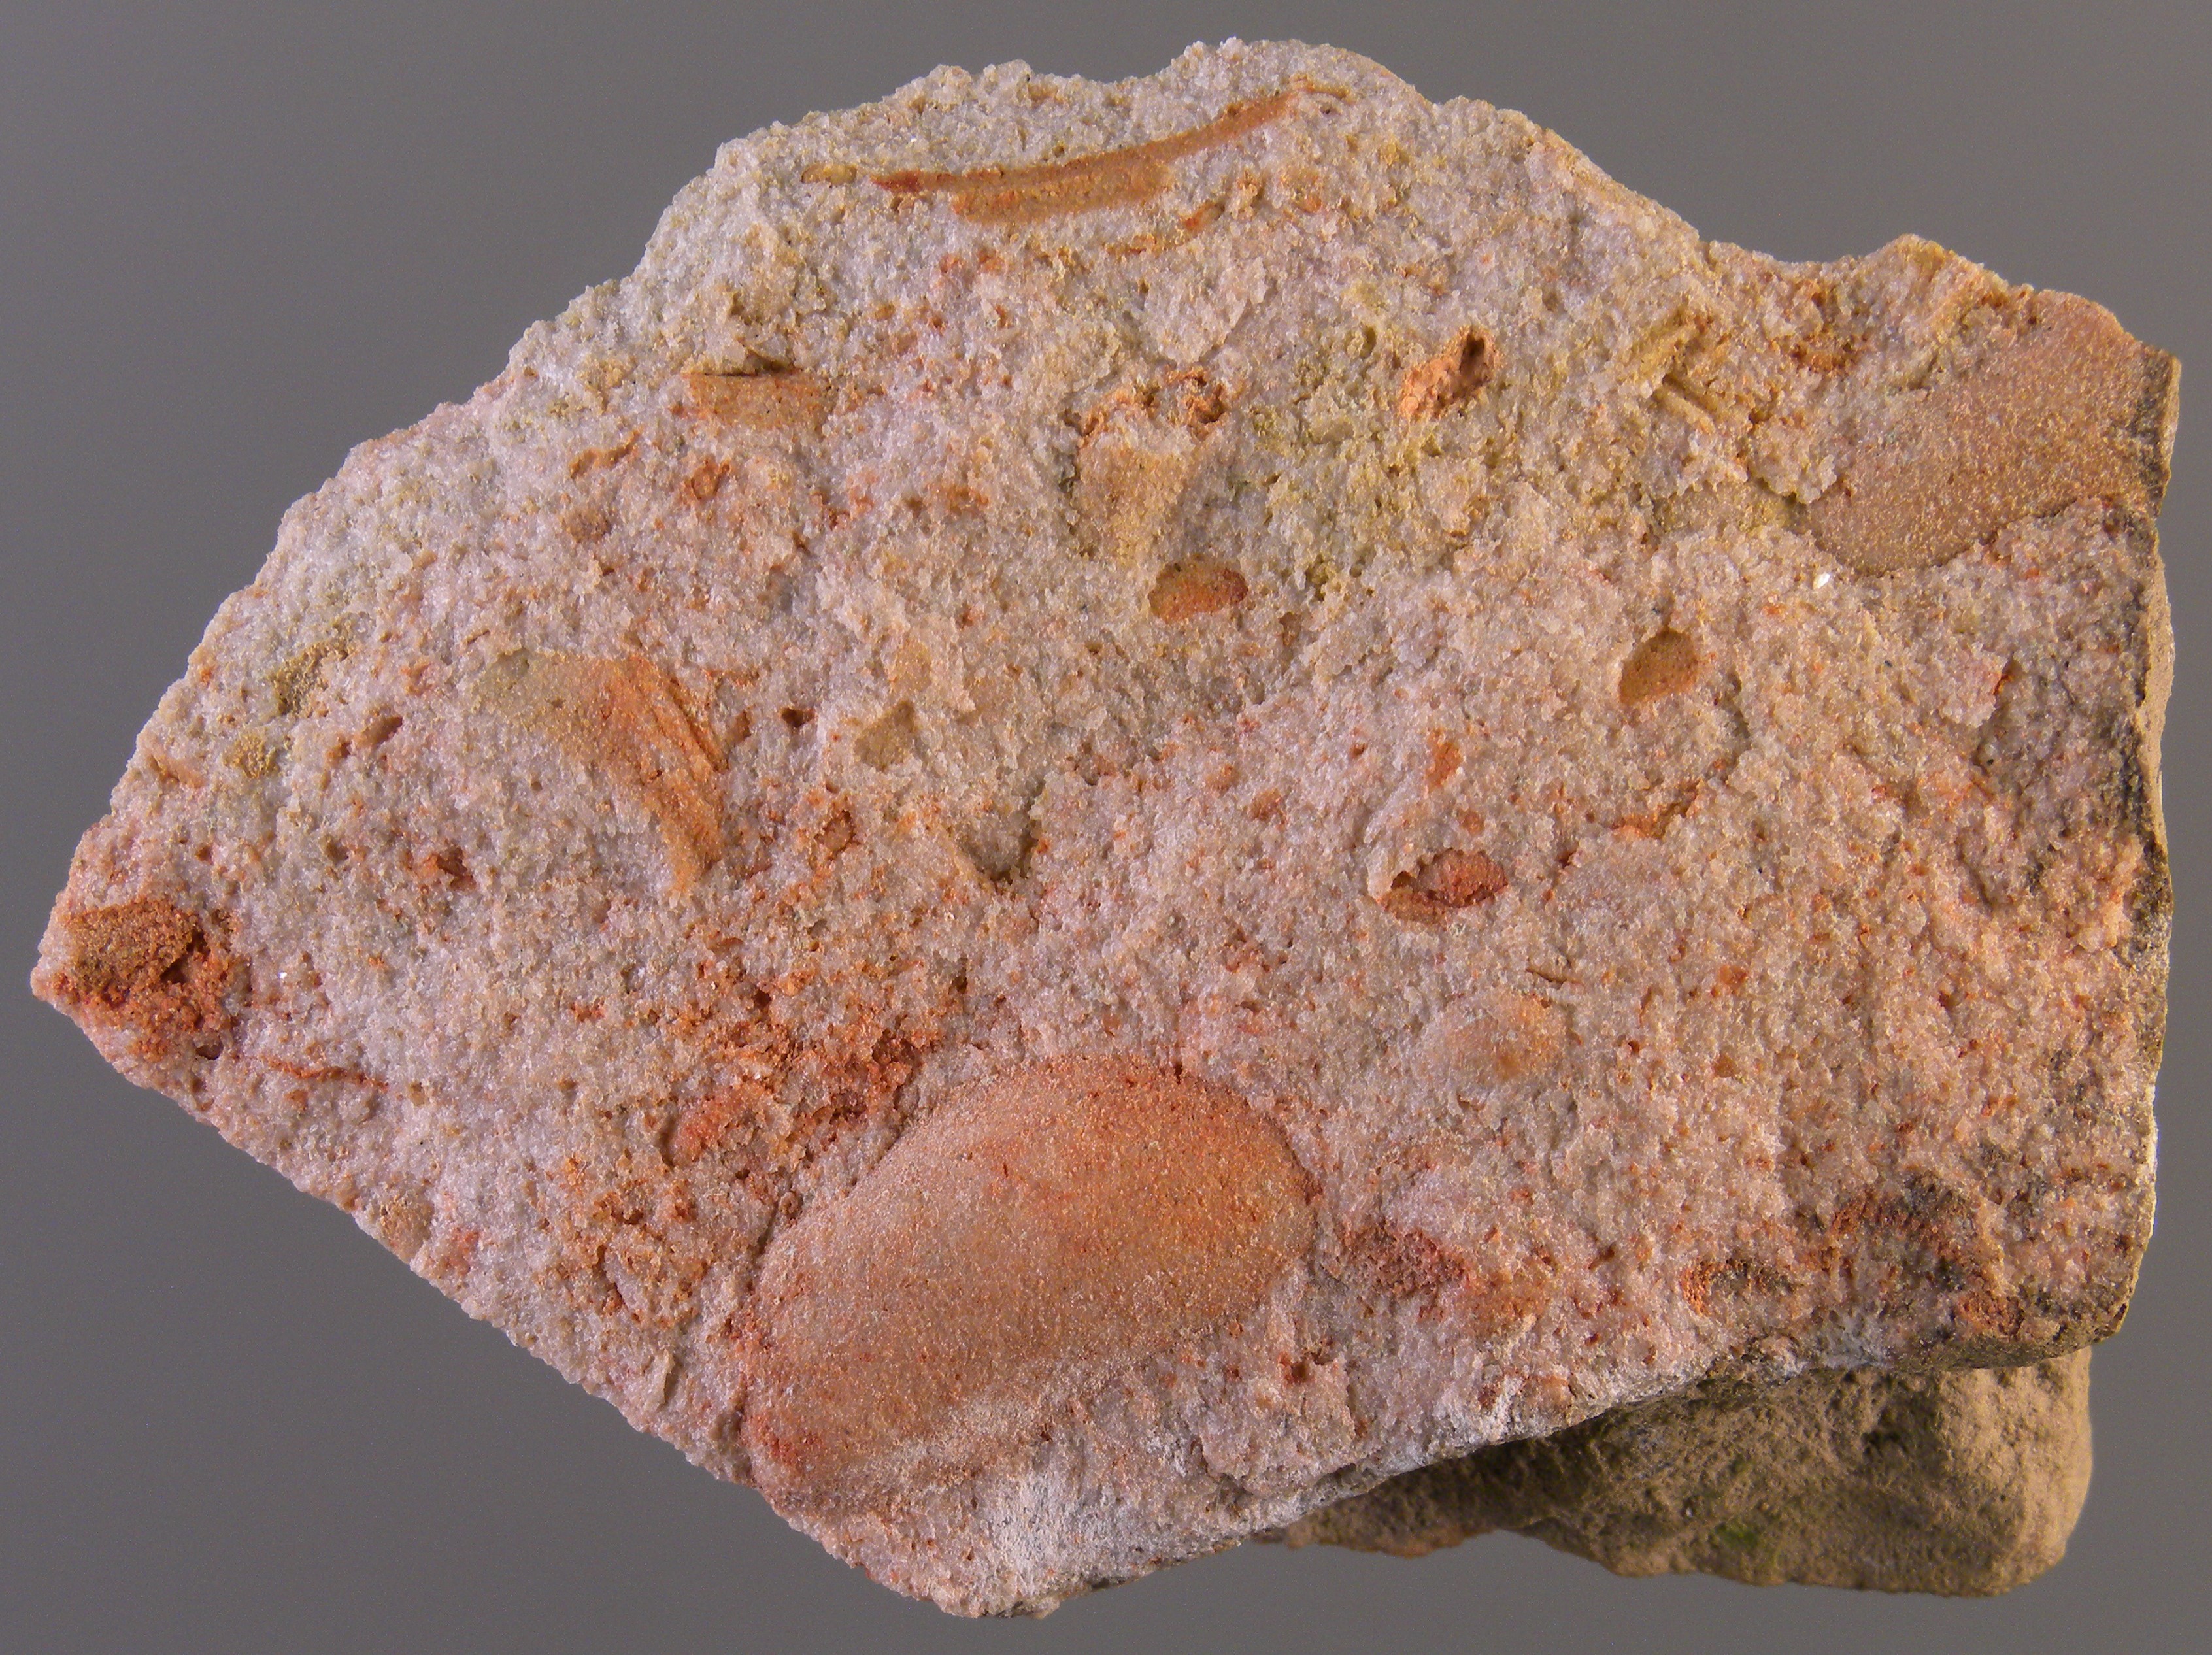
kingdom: Animalia
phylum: Mollusca
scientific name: Mollusca
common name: Mollusca
